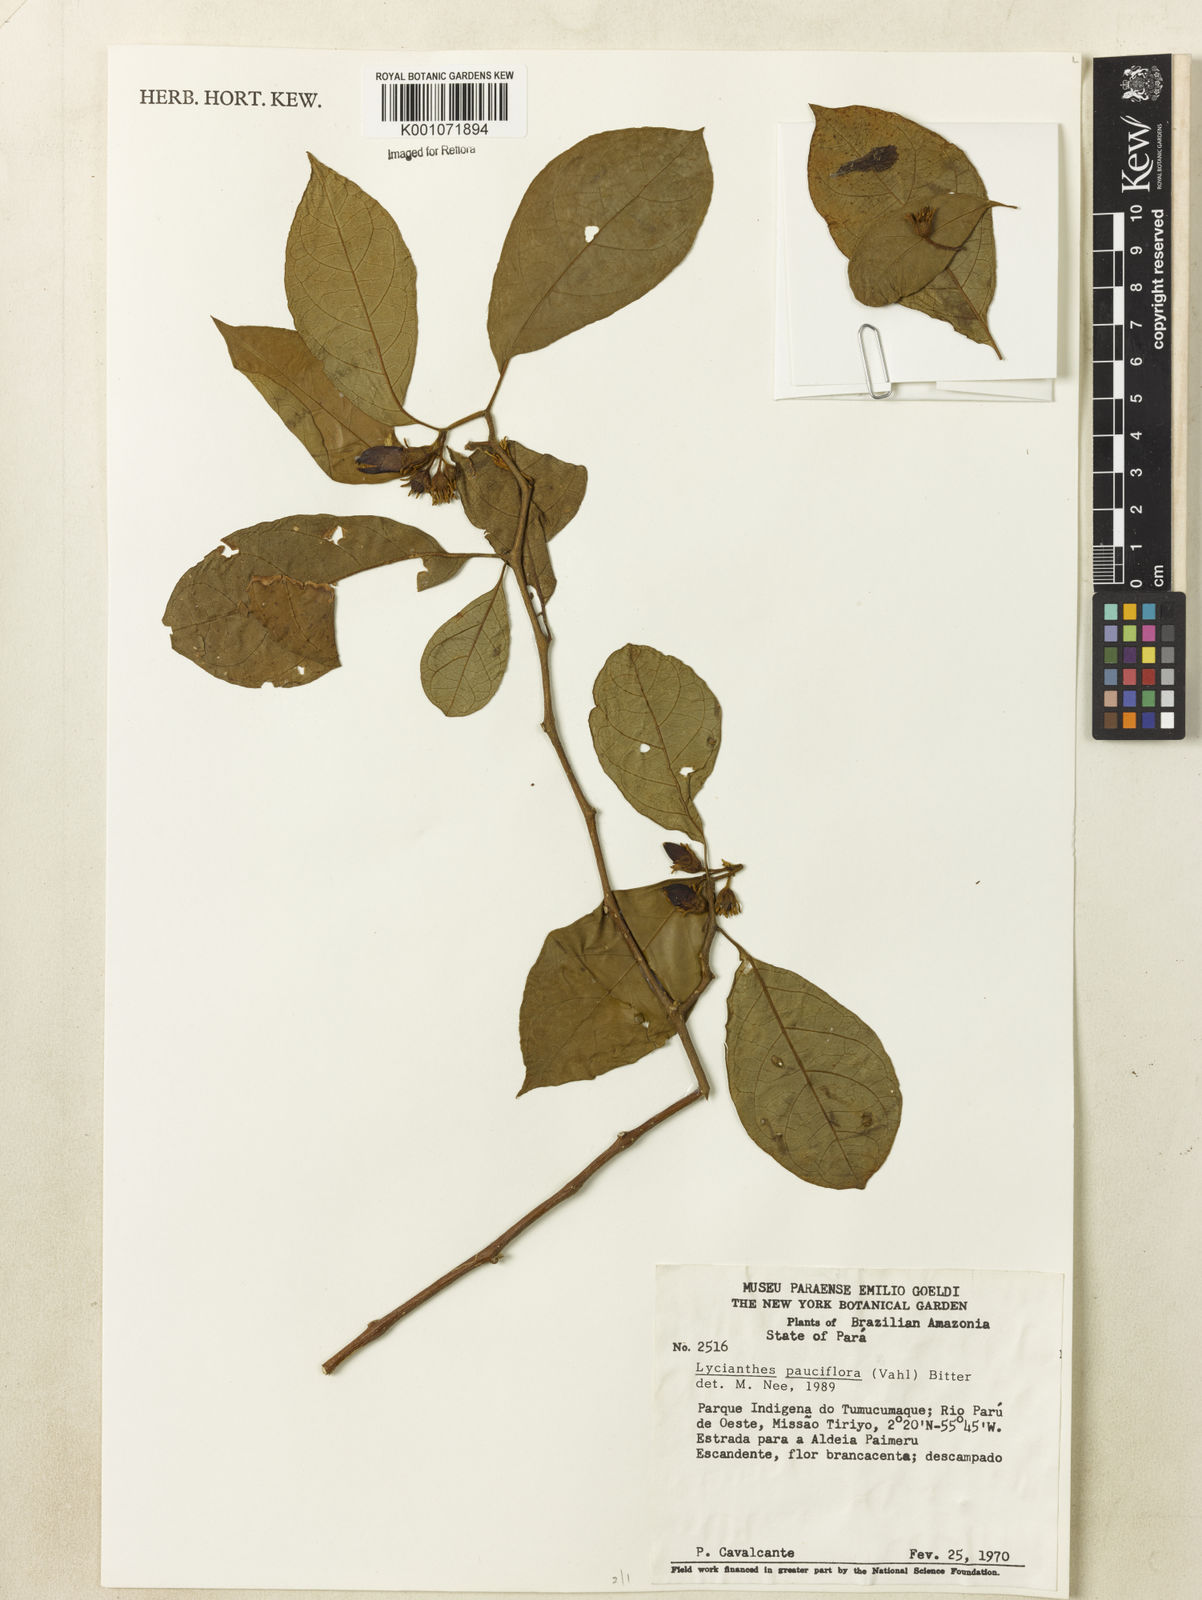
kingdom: Plantae
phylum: Tracheophyta
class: Magnoliopsida
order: Solanales
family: Solanaceae
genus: Lycianthes
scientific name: Lycianthes pauciflora
